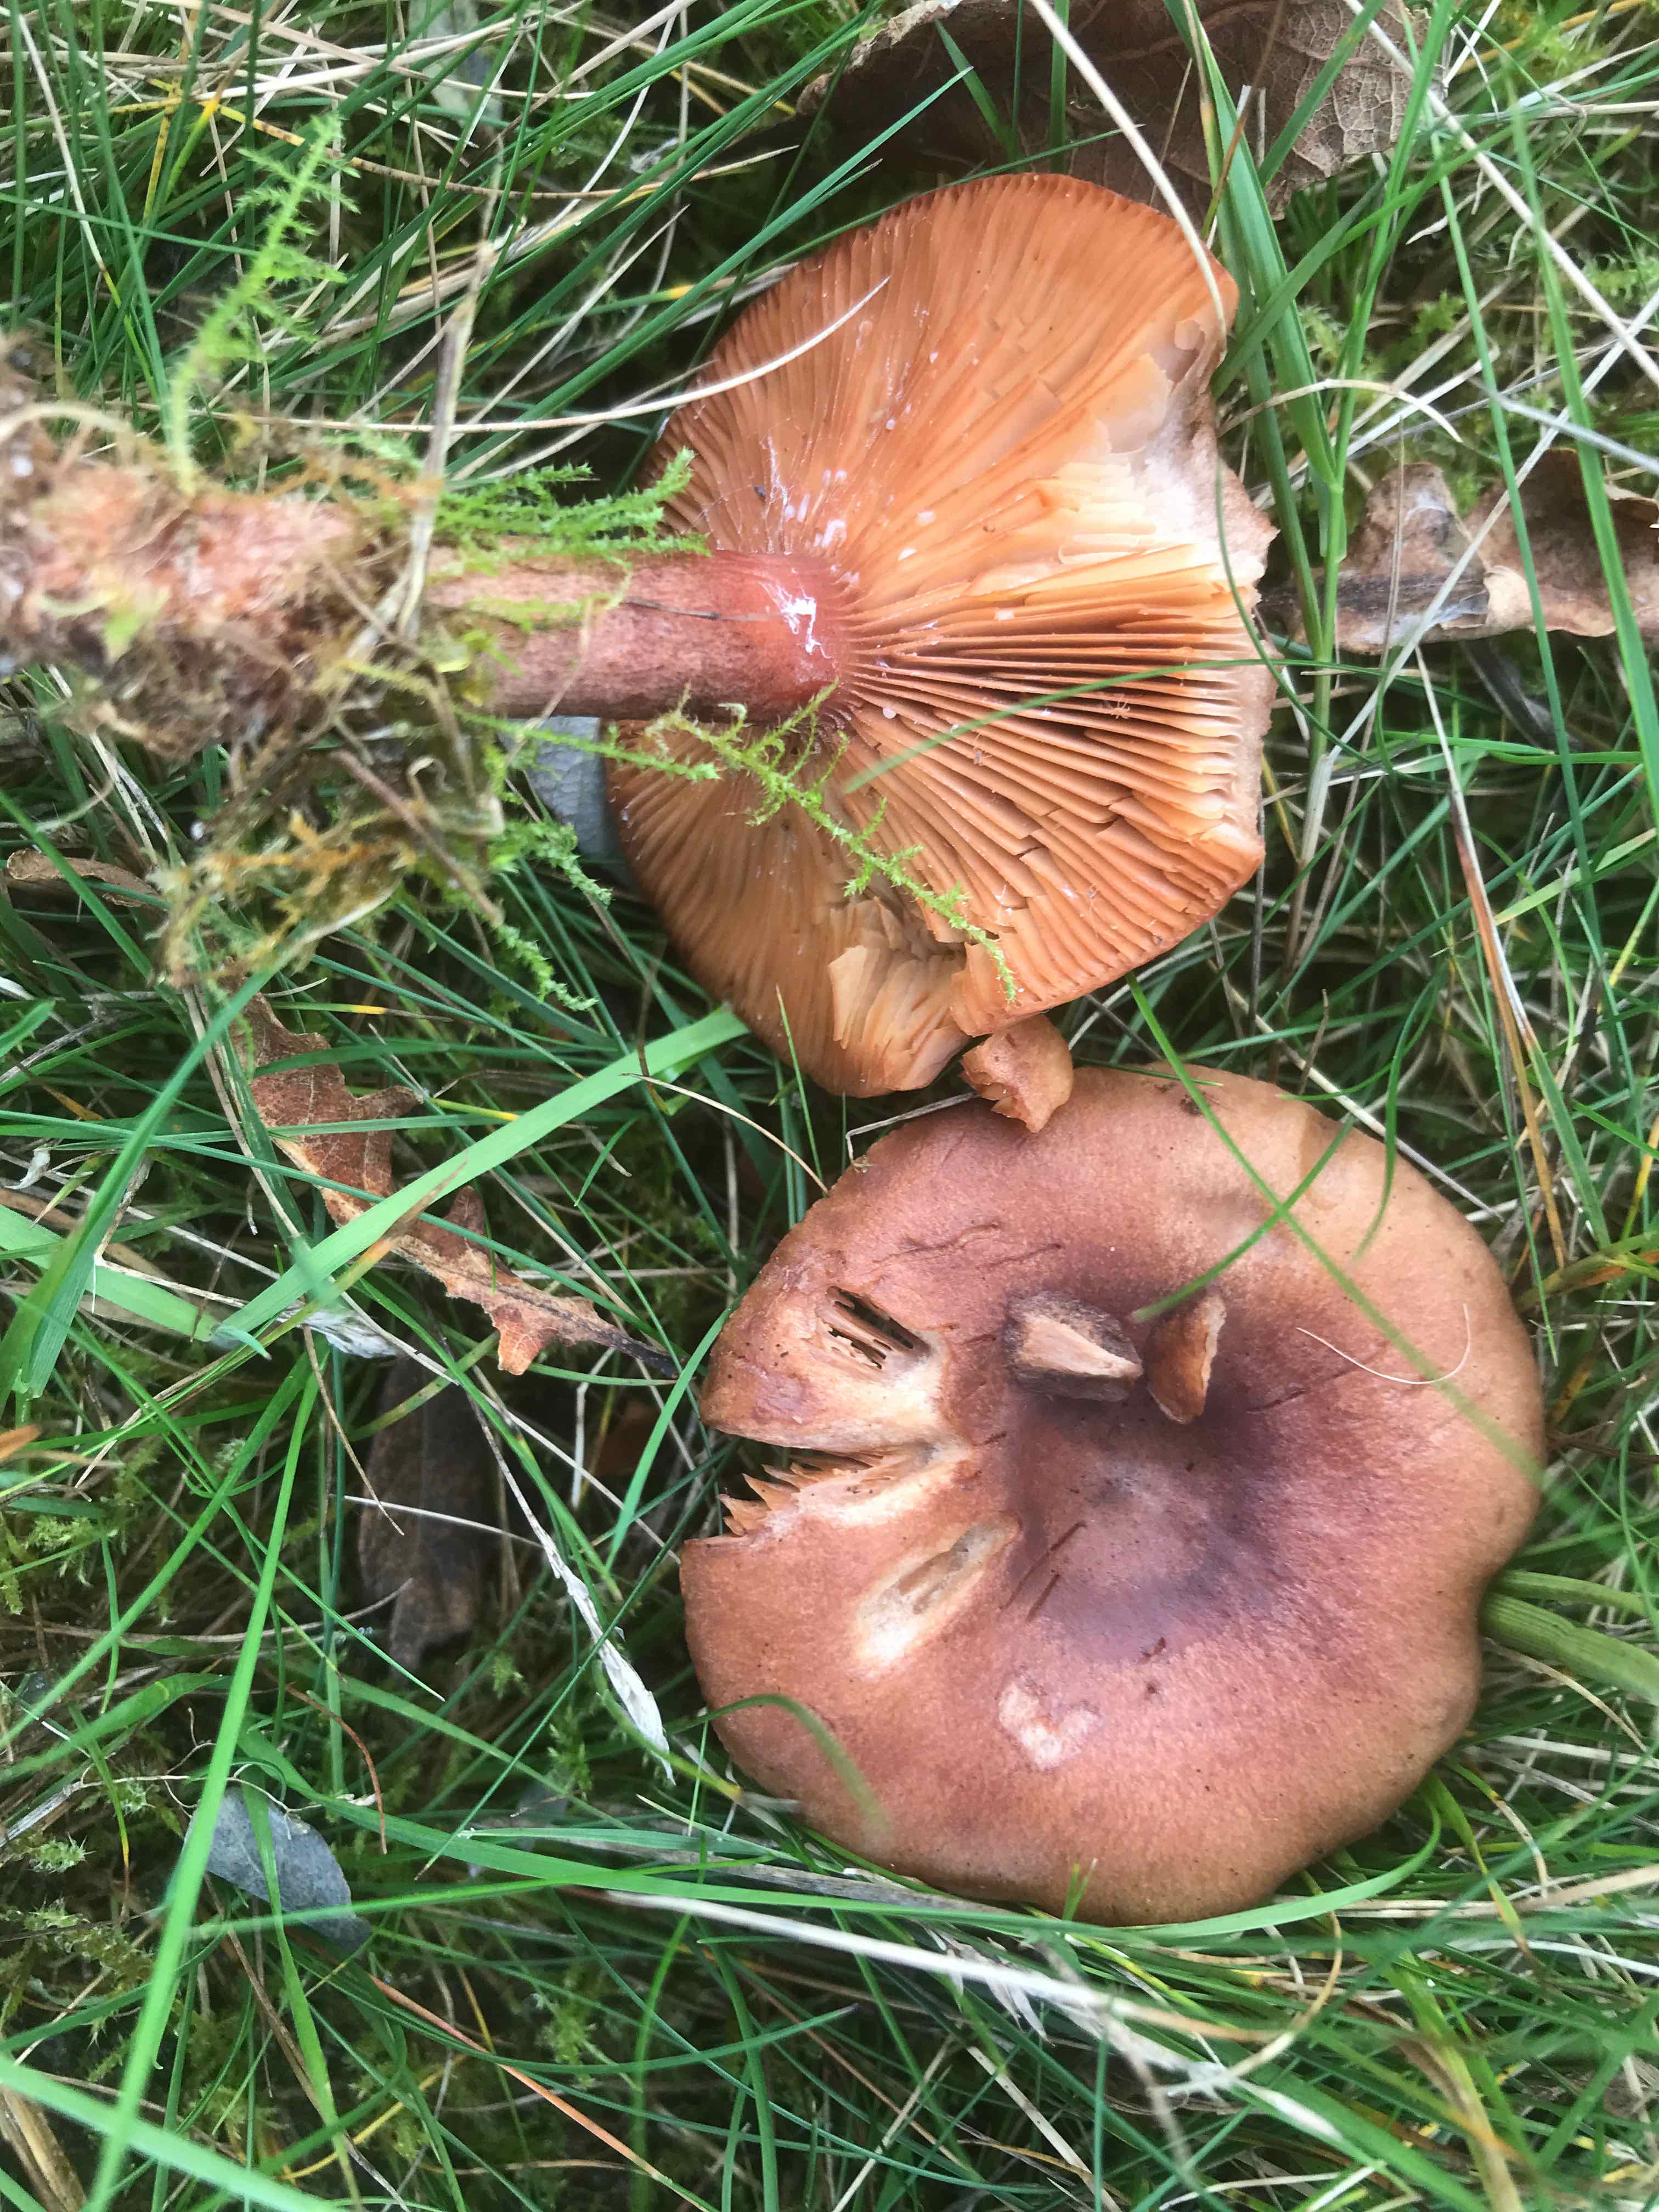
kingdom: Fungi
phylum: Basidiomycota
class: Agaricomycetes
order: Russulales
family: Russulaceae
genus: Lactarius
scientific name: Lactarius quietus
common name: ege-mælkehat
